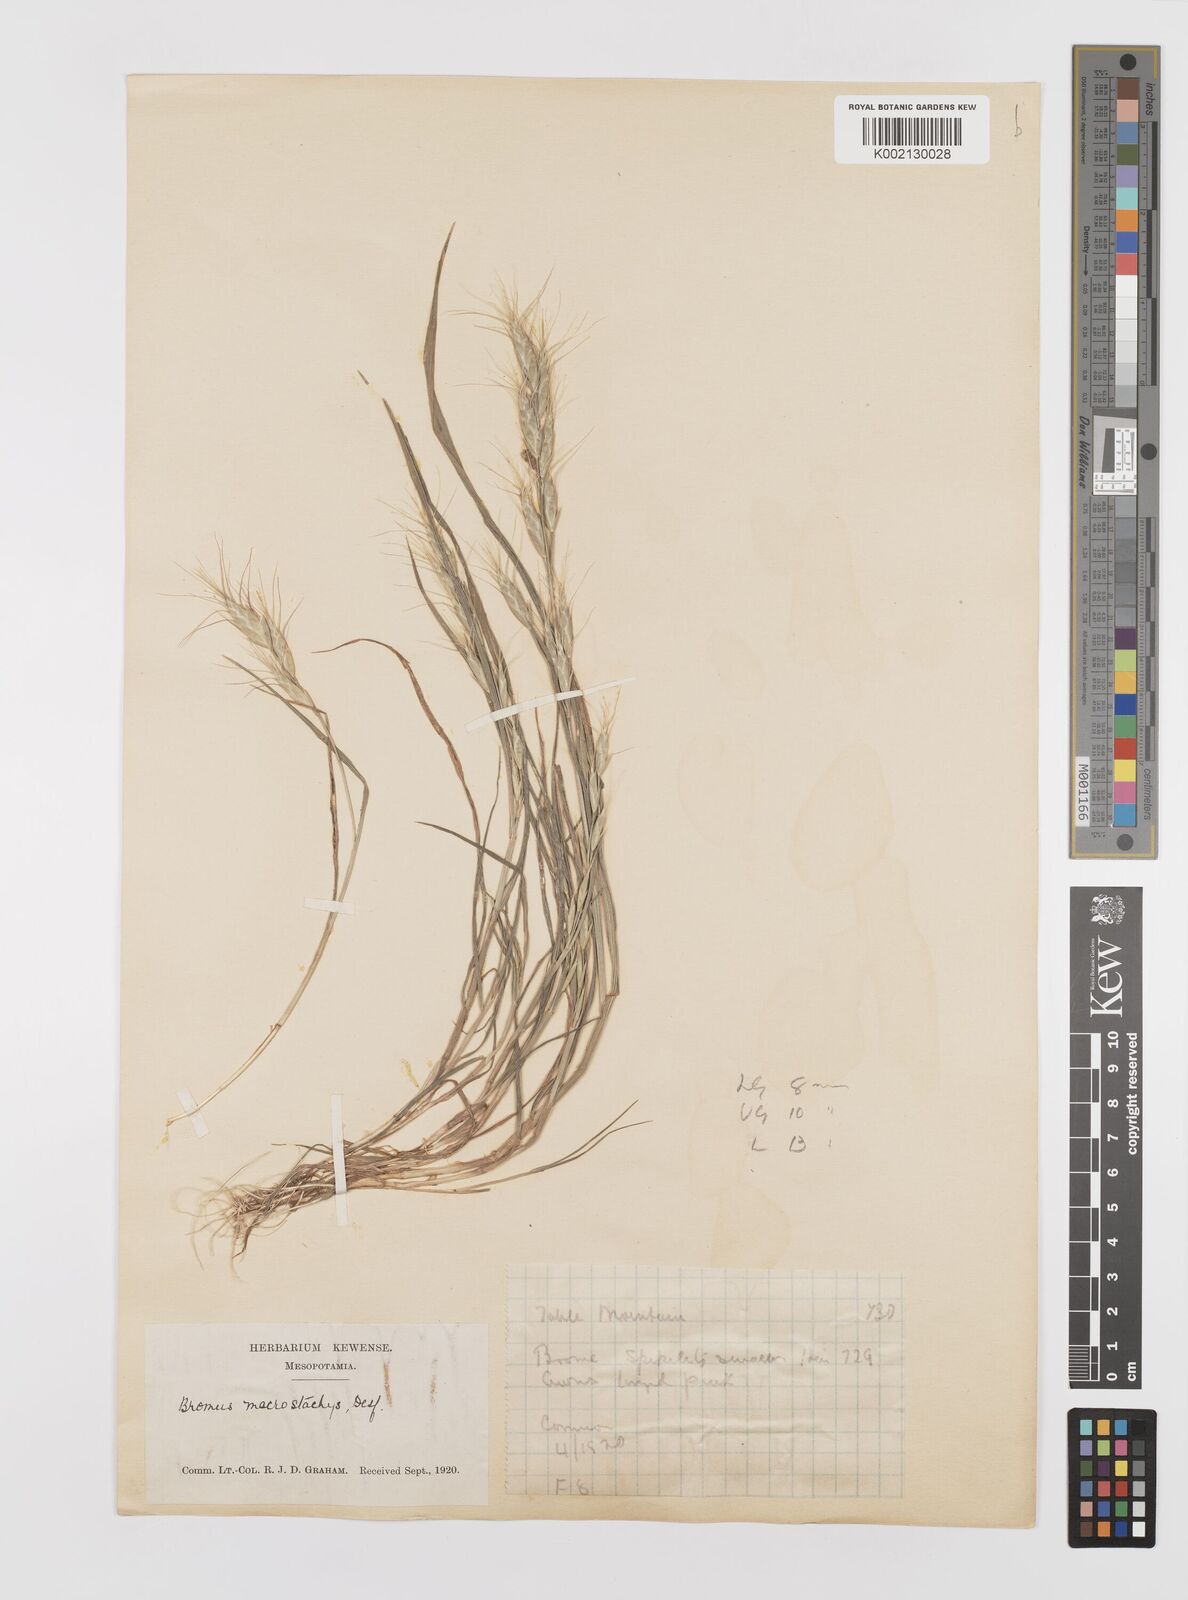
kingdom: Plantae
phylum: Tracheophyta
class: Liliopsida
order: Poales
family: Poaceae
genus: Bromus
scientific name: Bromus danthoniae
